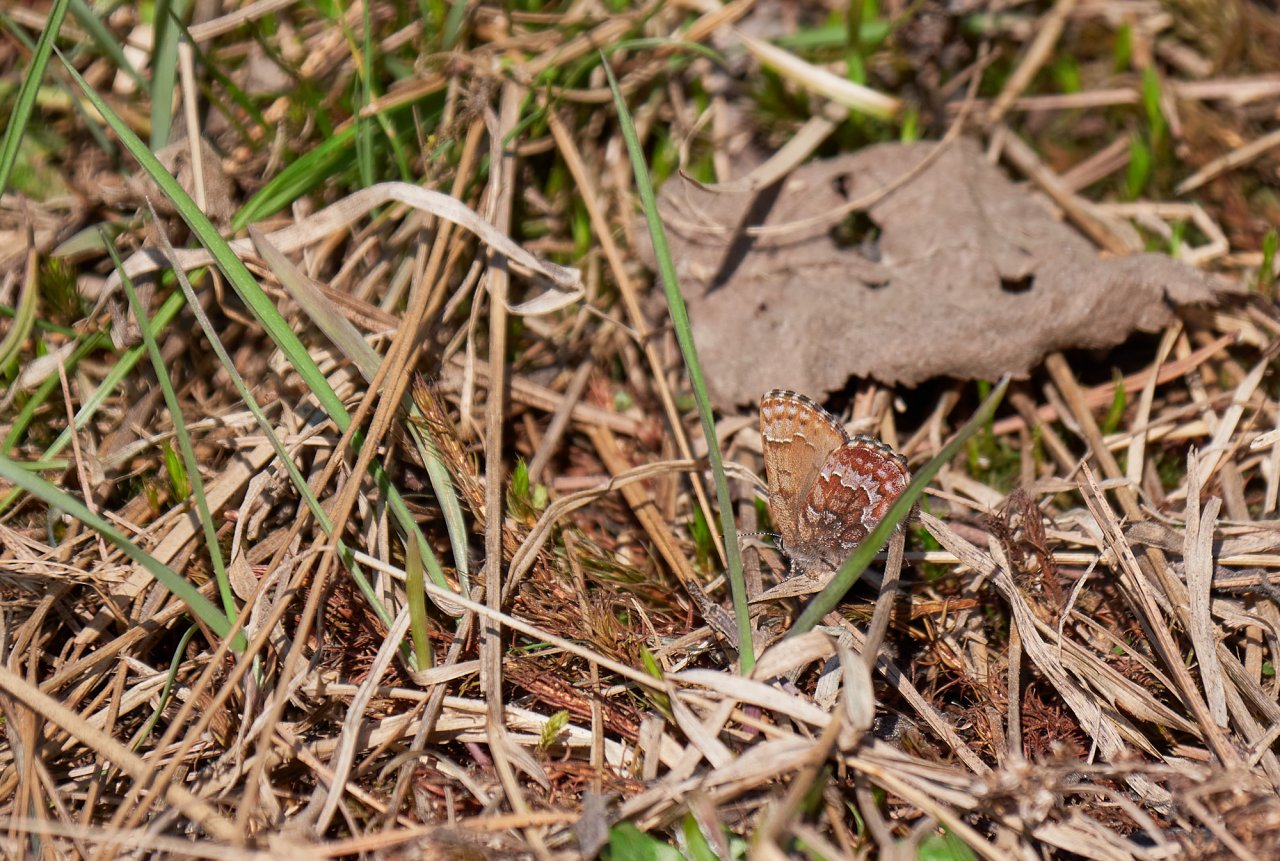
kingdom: Animalia
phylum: Arthropoda
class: Insecta
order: Lepidoptera
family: Lycaenidae
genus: Incisalia
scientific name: Incisalia niphon
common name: Eastern Pine Elfin
